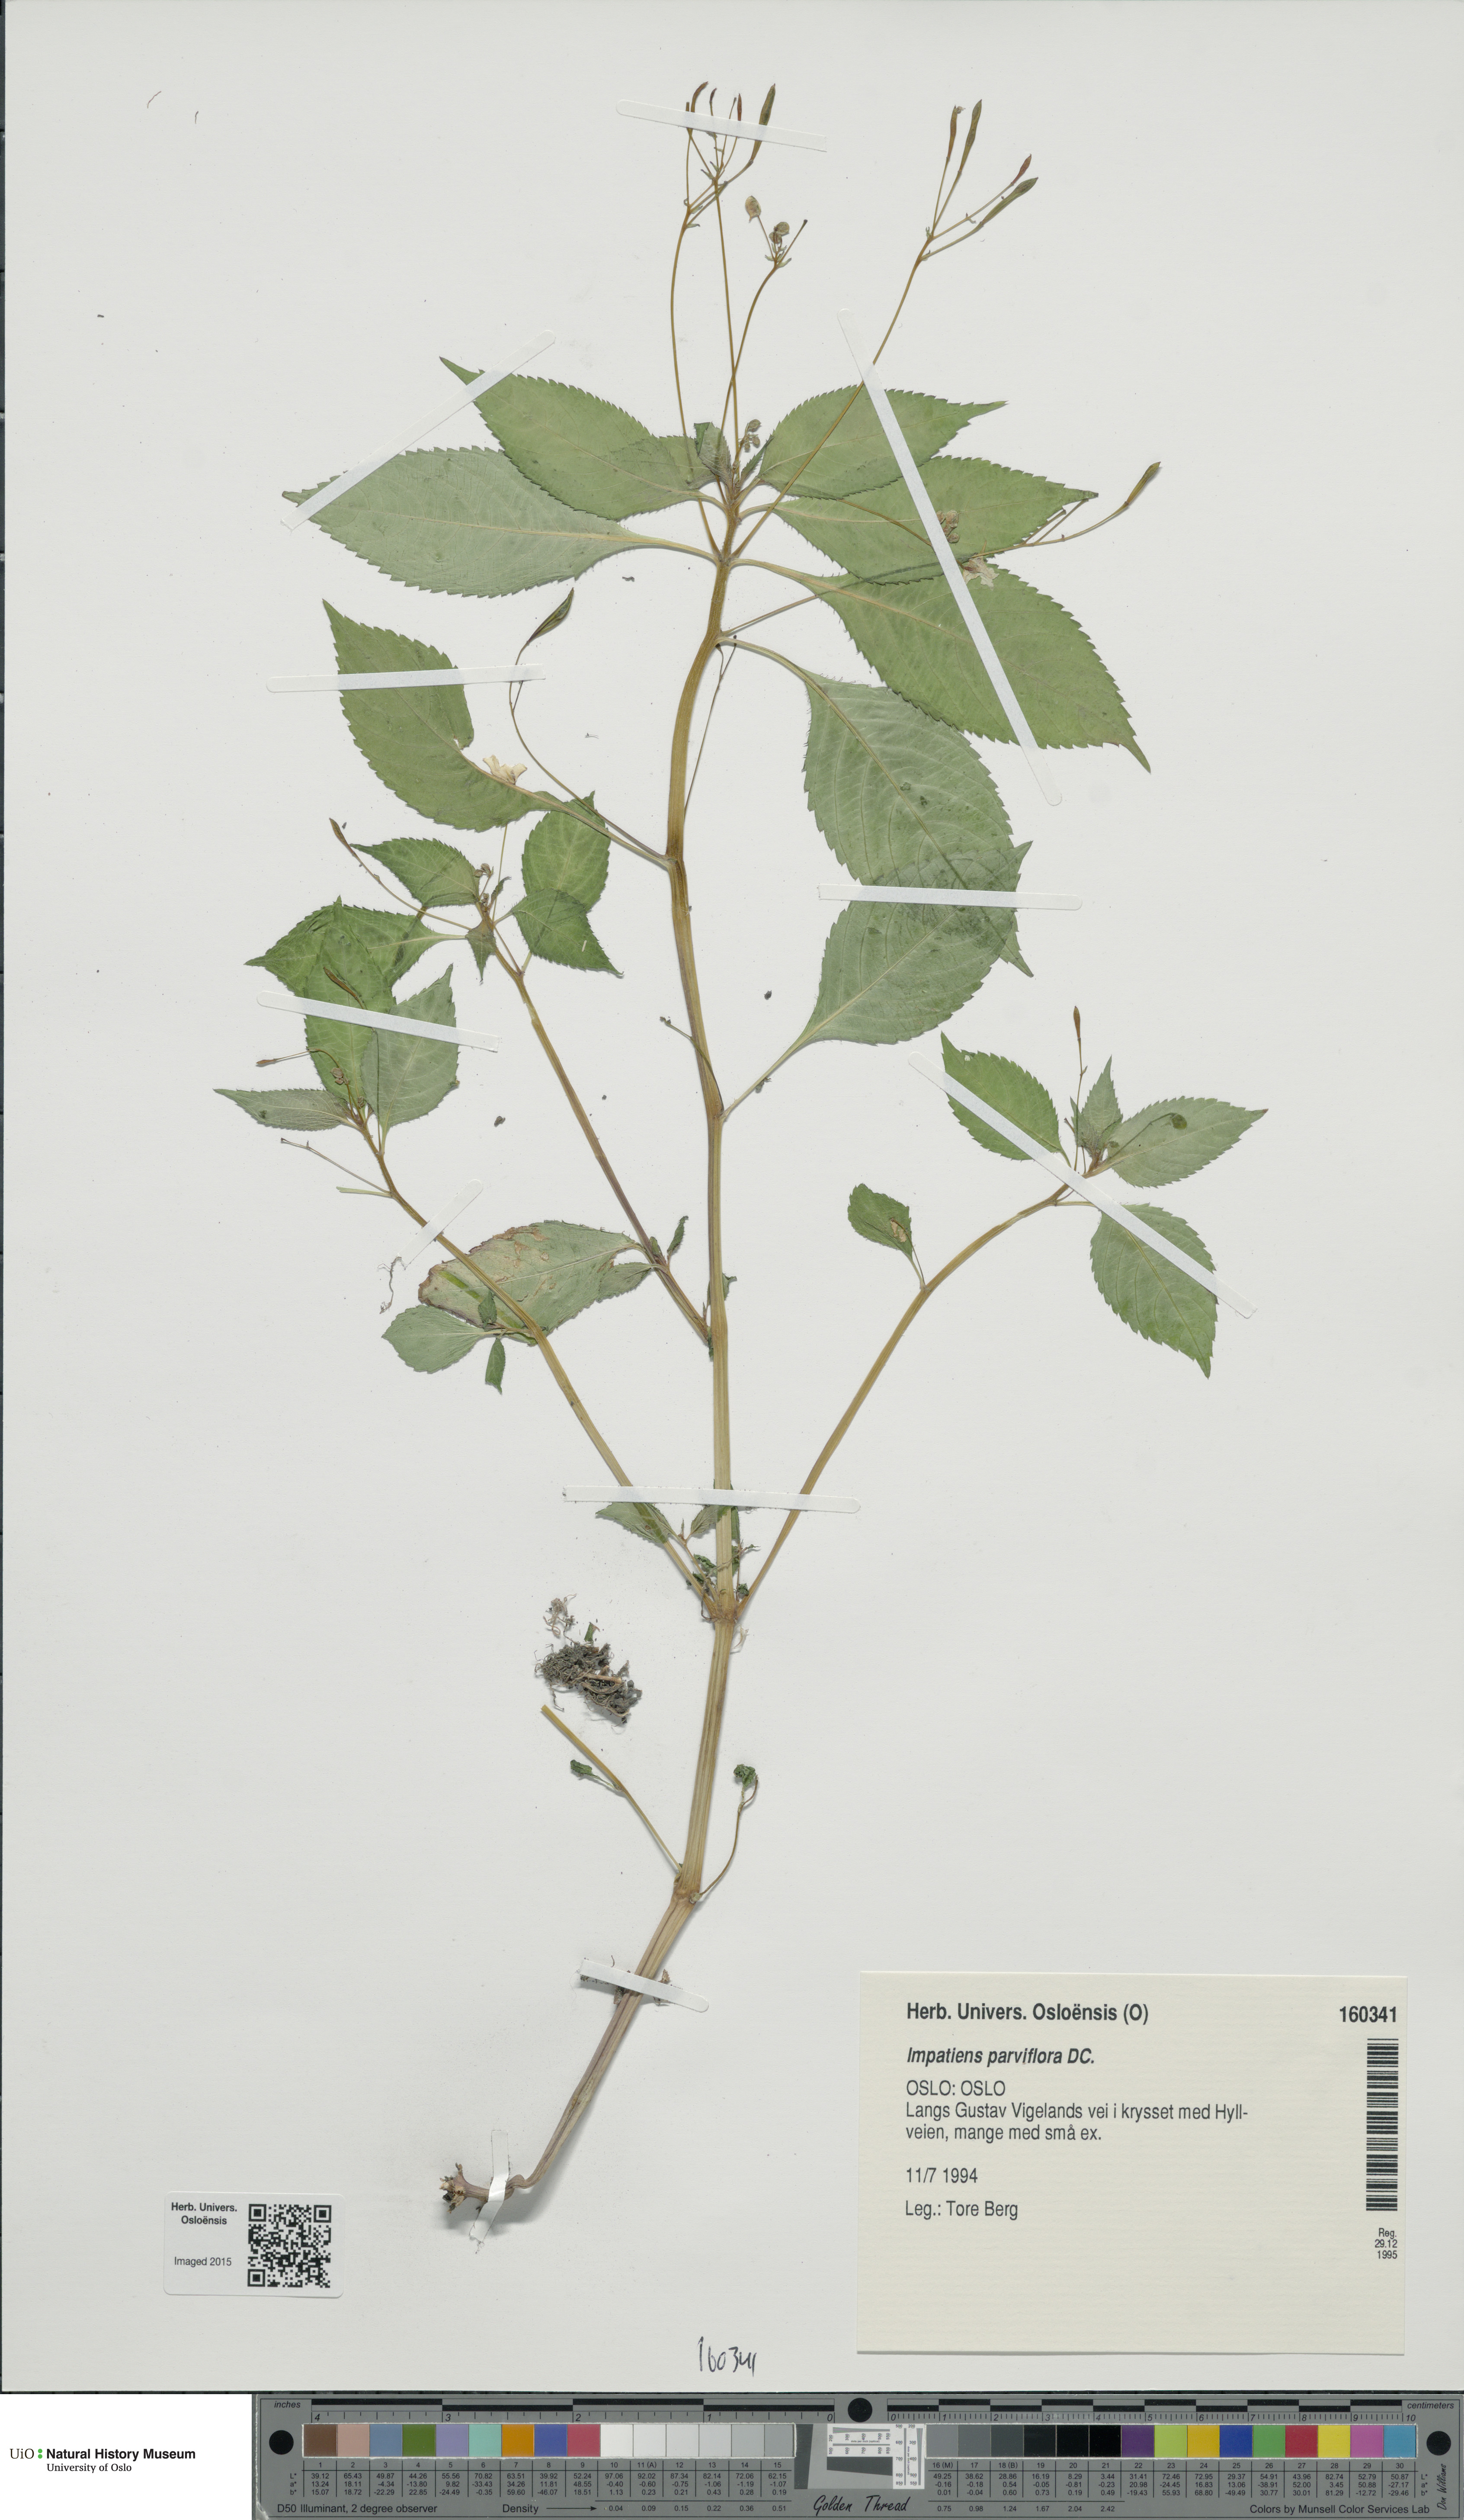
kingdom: Plantae
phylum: Tracheophyta
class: Magnoliopsida
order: Ericales
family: Balsaminaceae
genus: Impatiens
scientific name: Impatiens parviflora
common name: Small balsam
